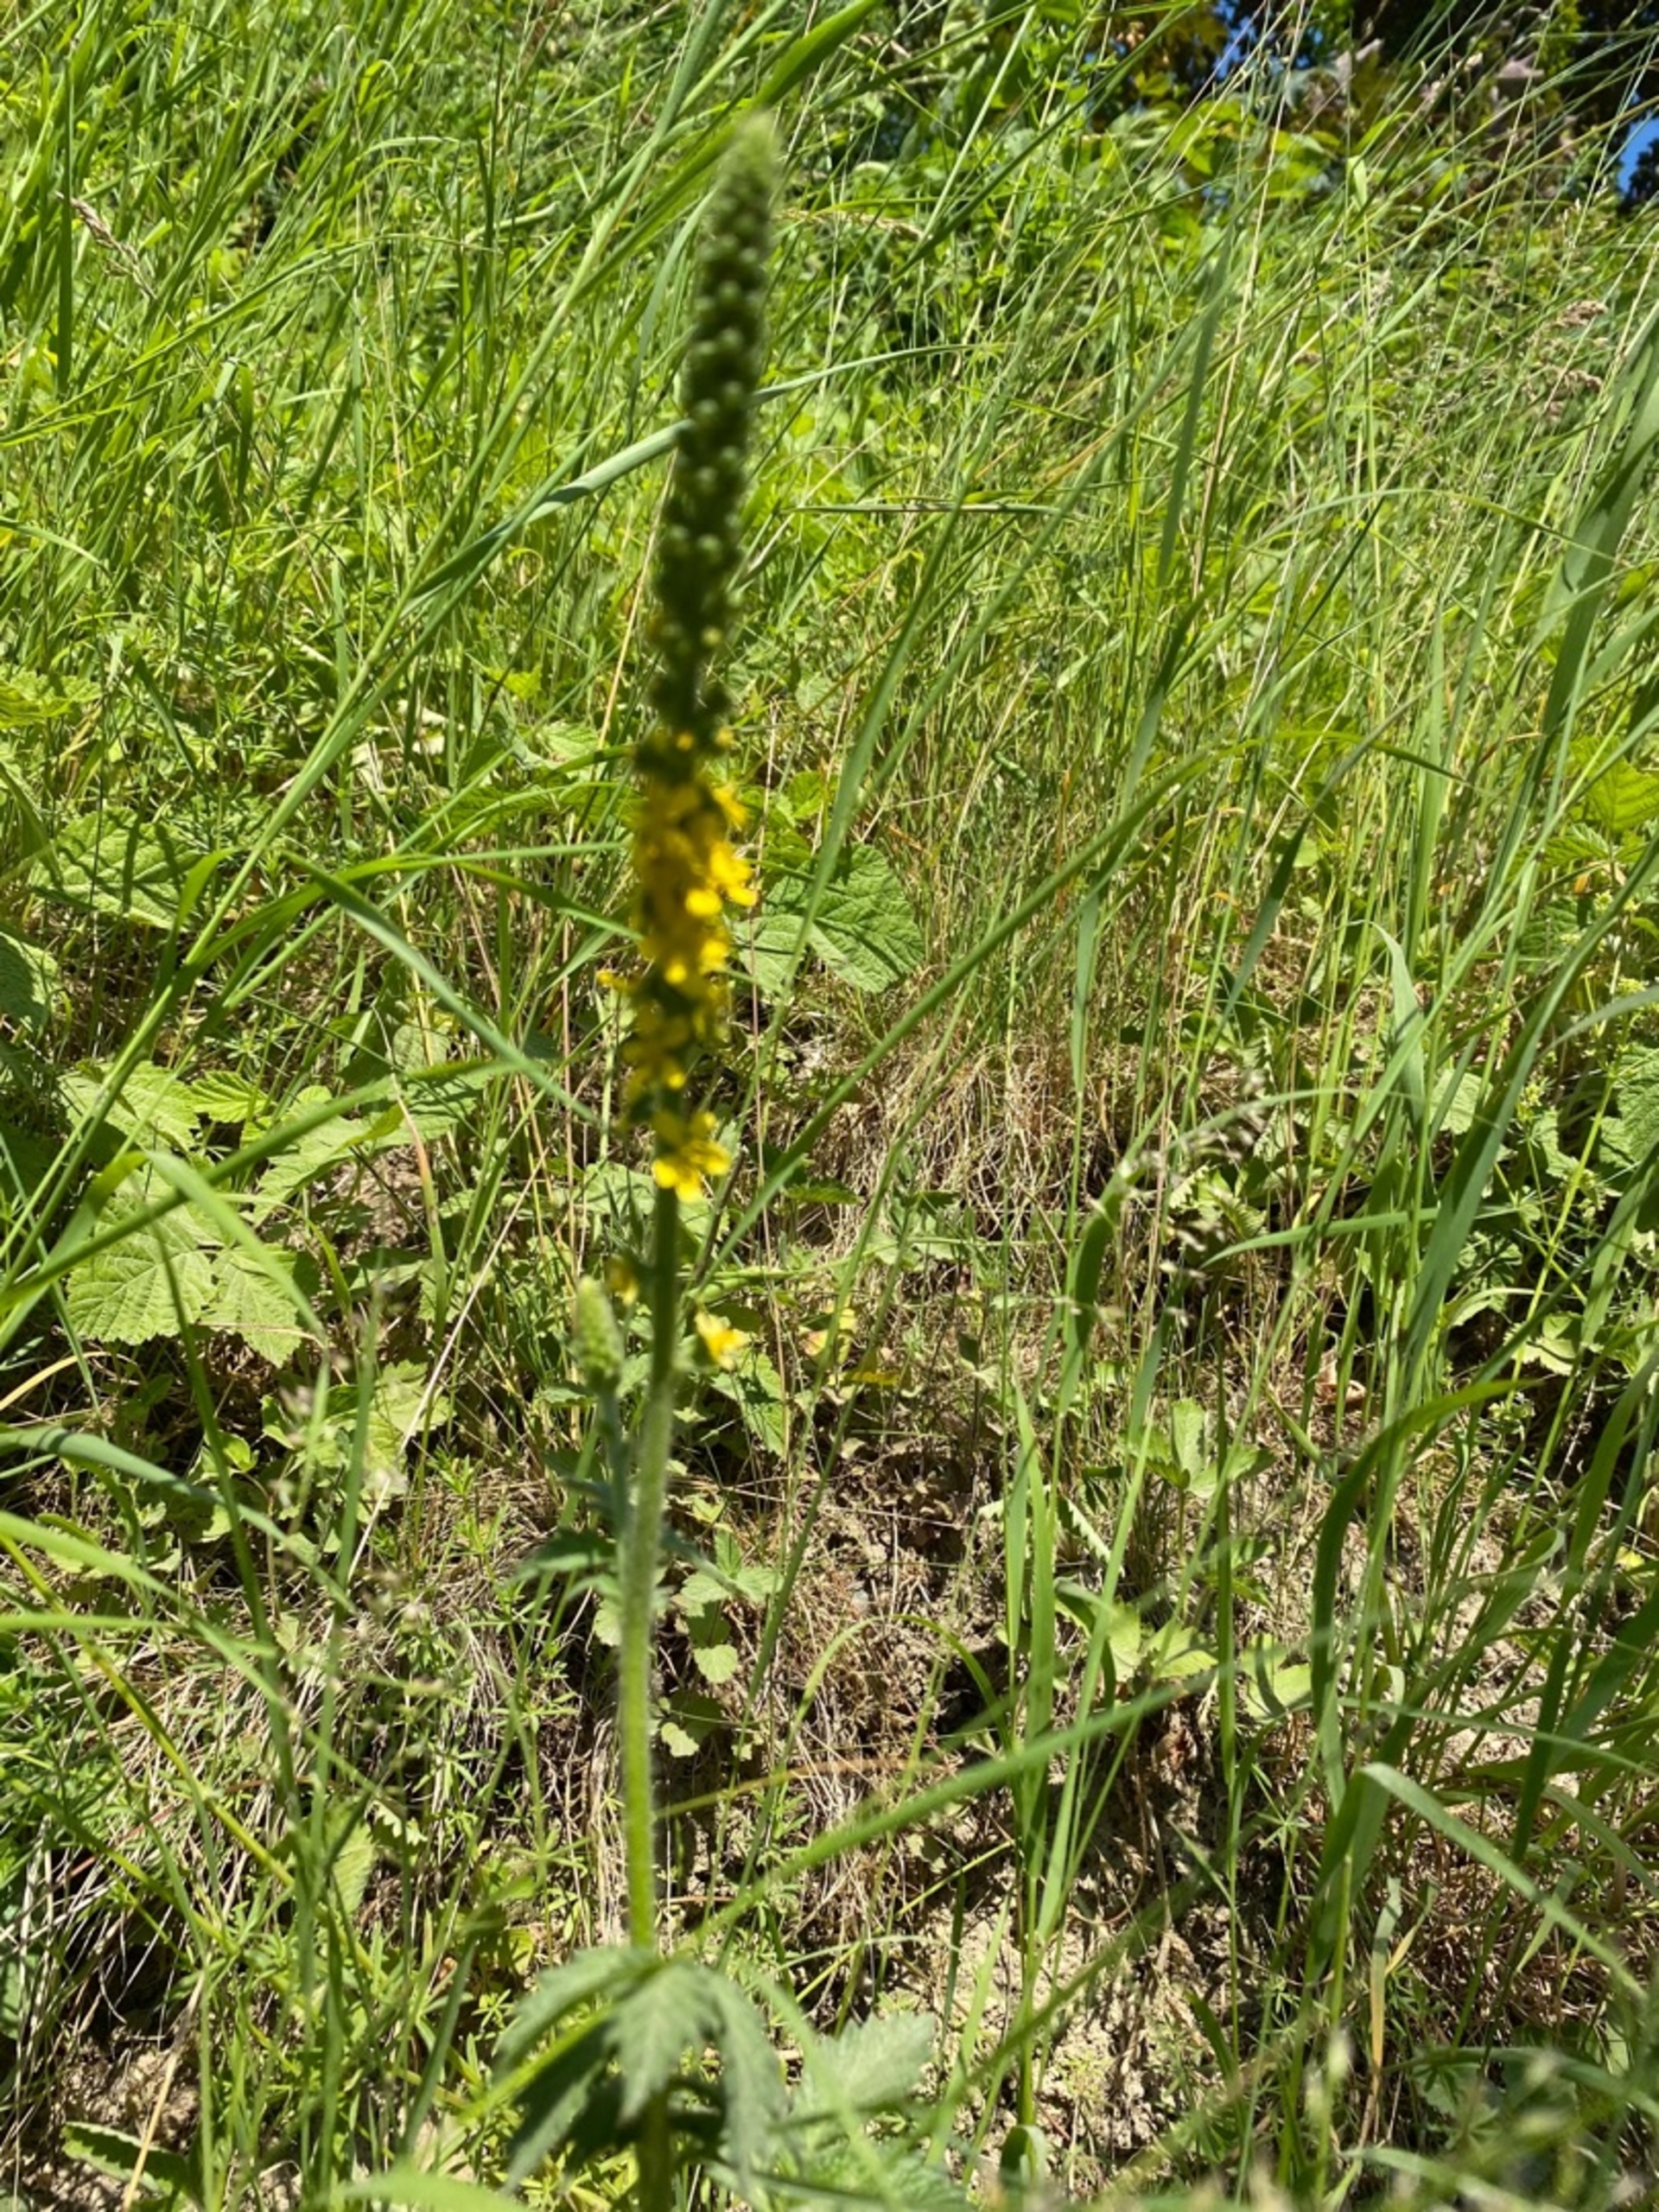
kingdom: Plantae
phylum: Tracheophyta
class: Magnoliopsida
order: Rosales
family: Rosaceae
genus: Agrimonia
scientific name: Agrimonia eupatoria
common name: Almindelig agermåne
